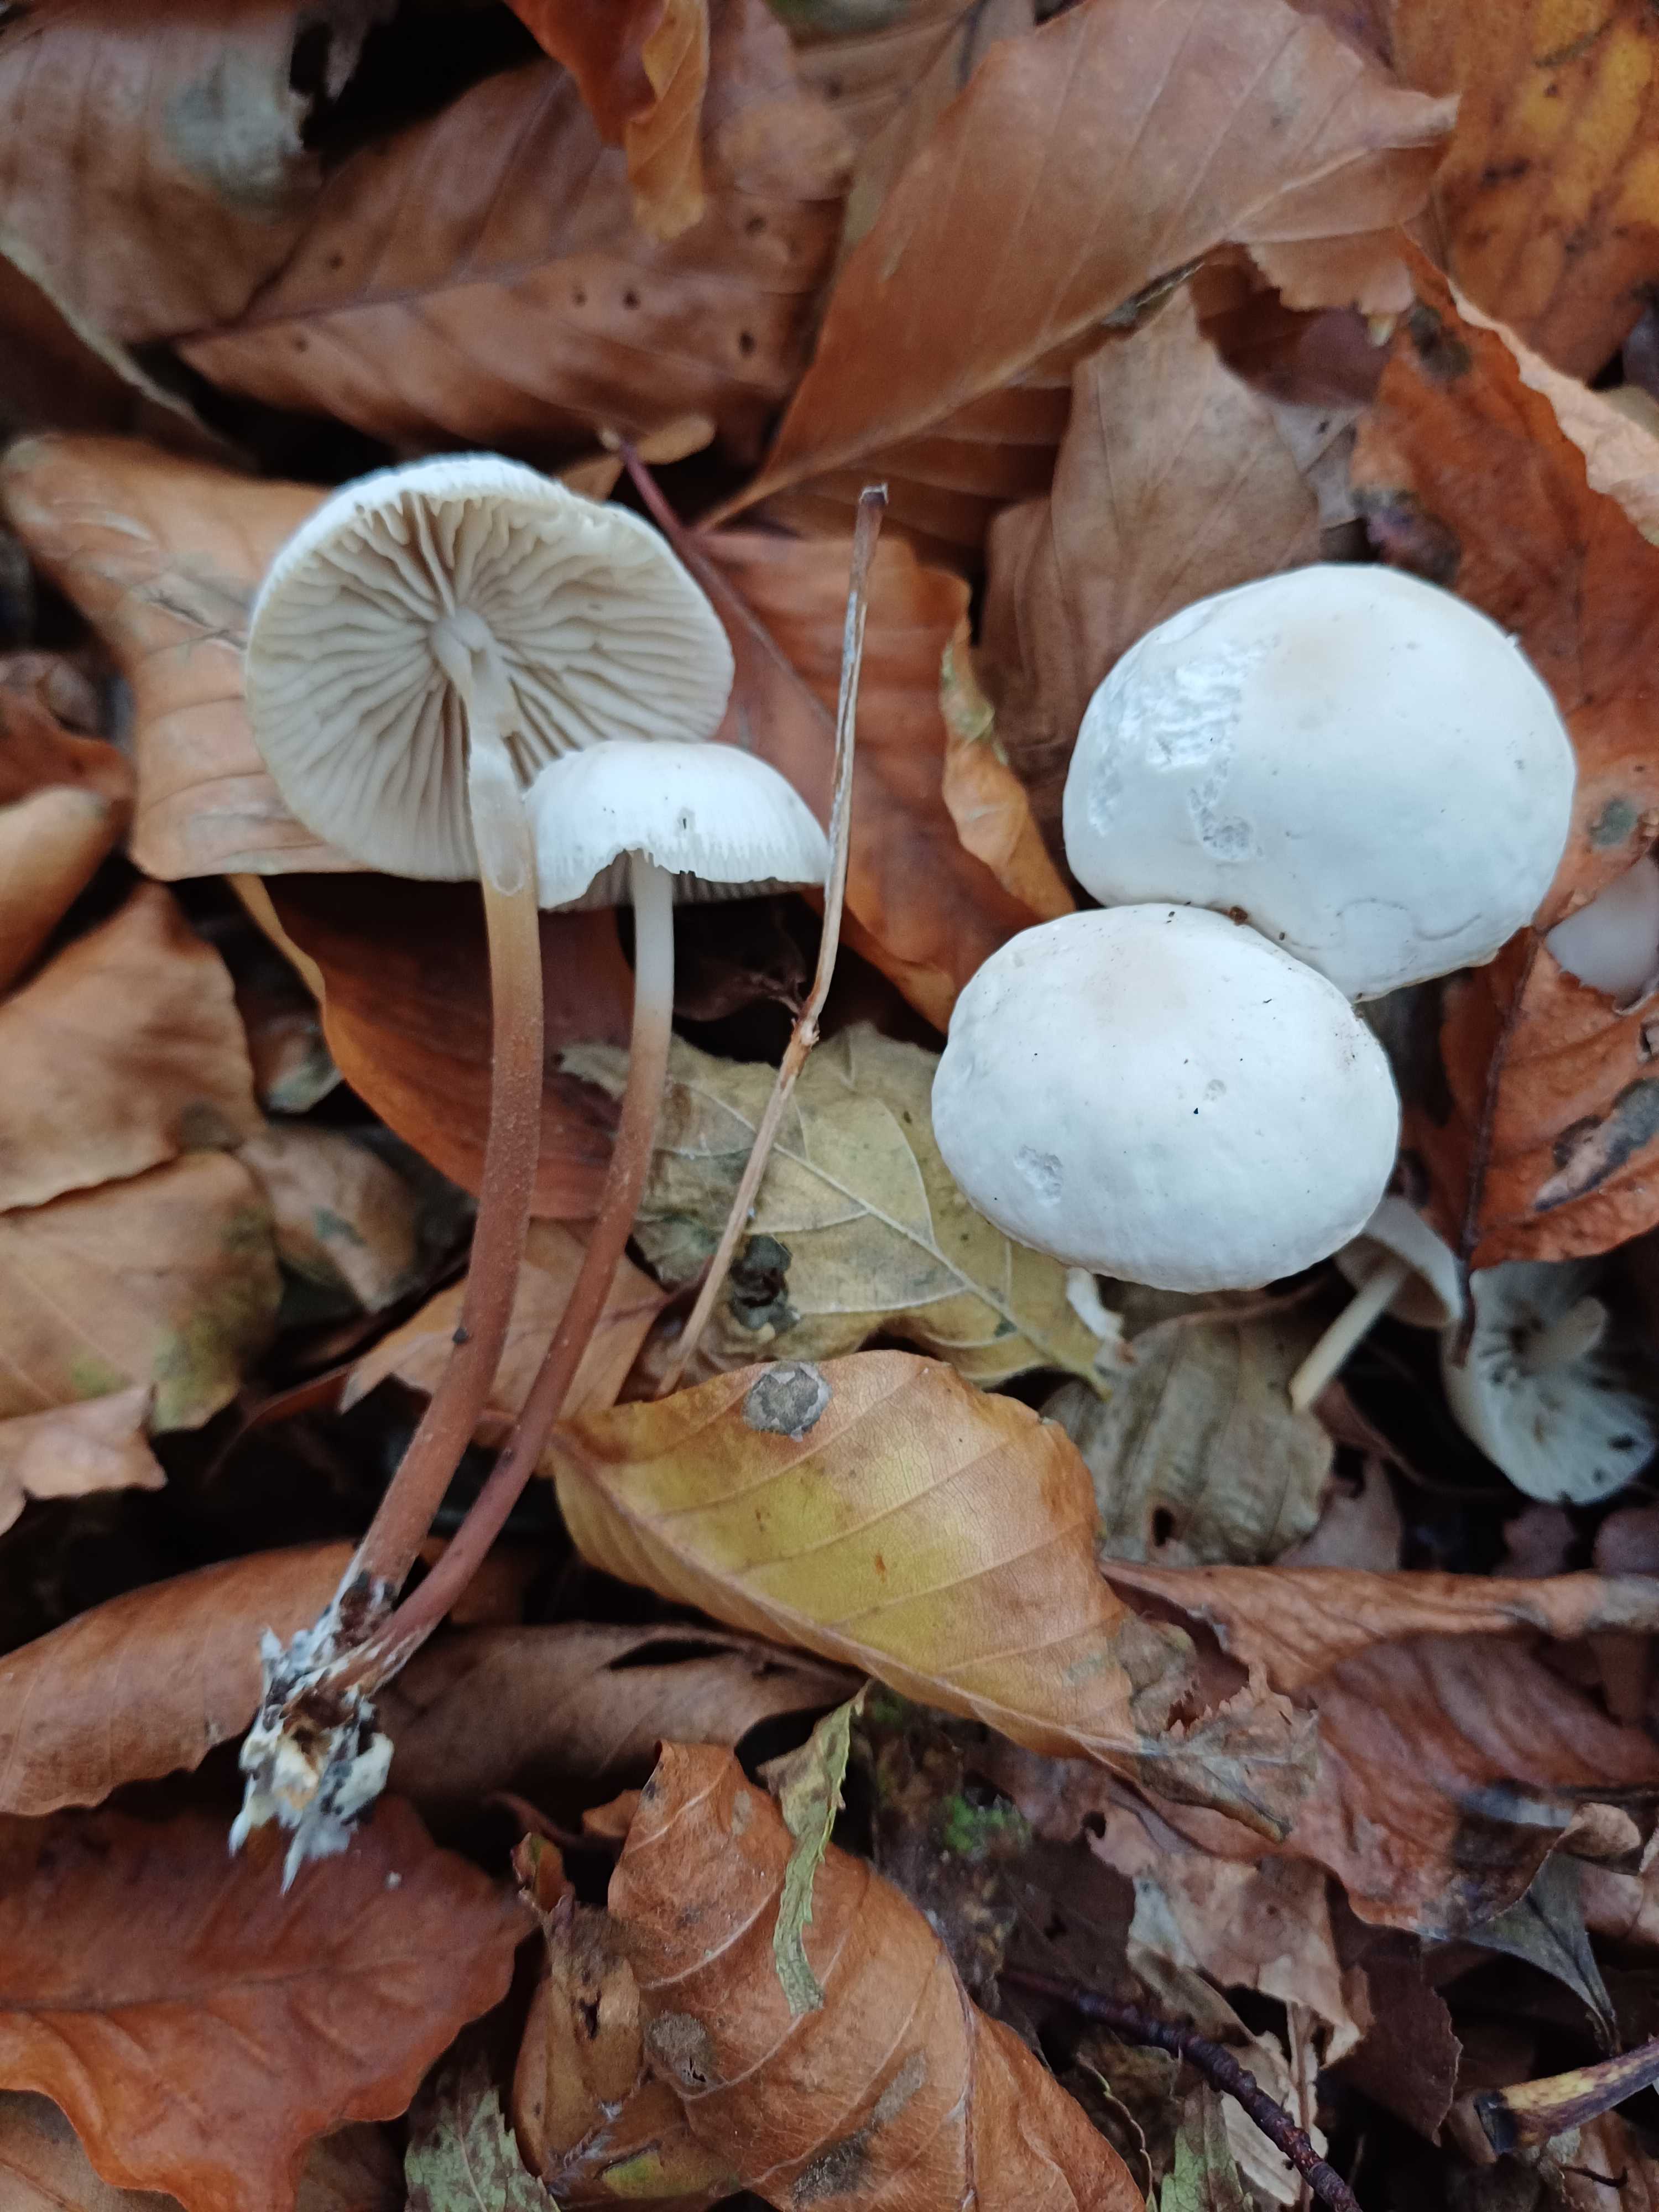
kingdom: Fungi
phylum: Basidiomycota
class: Agaricomycetes
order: Agaricales
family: Marasmiaceae
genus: Marasmius
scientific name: Marasmius wynneae
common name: hvælvet bruskhat
